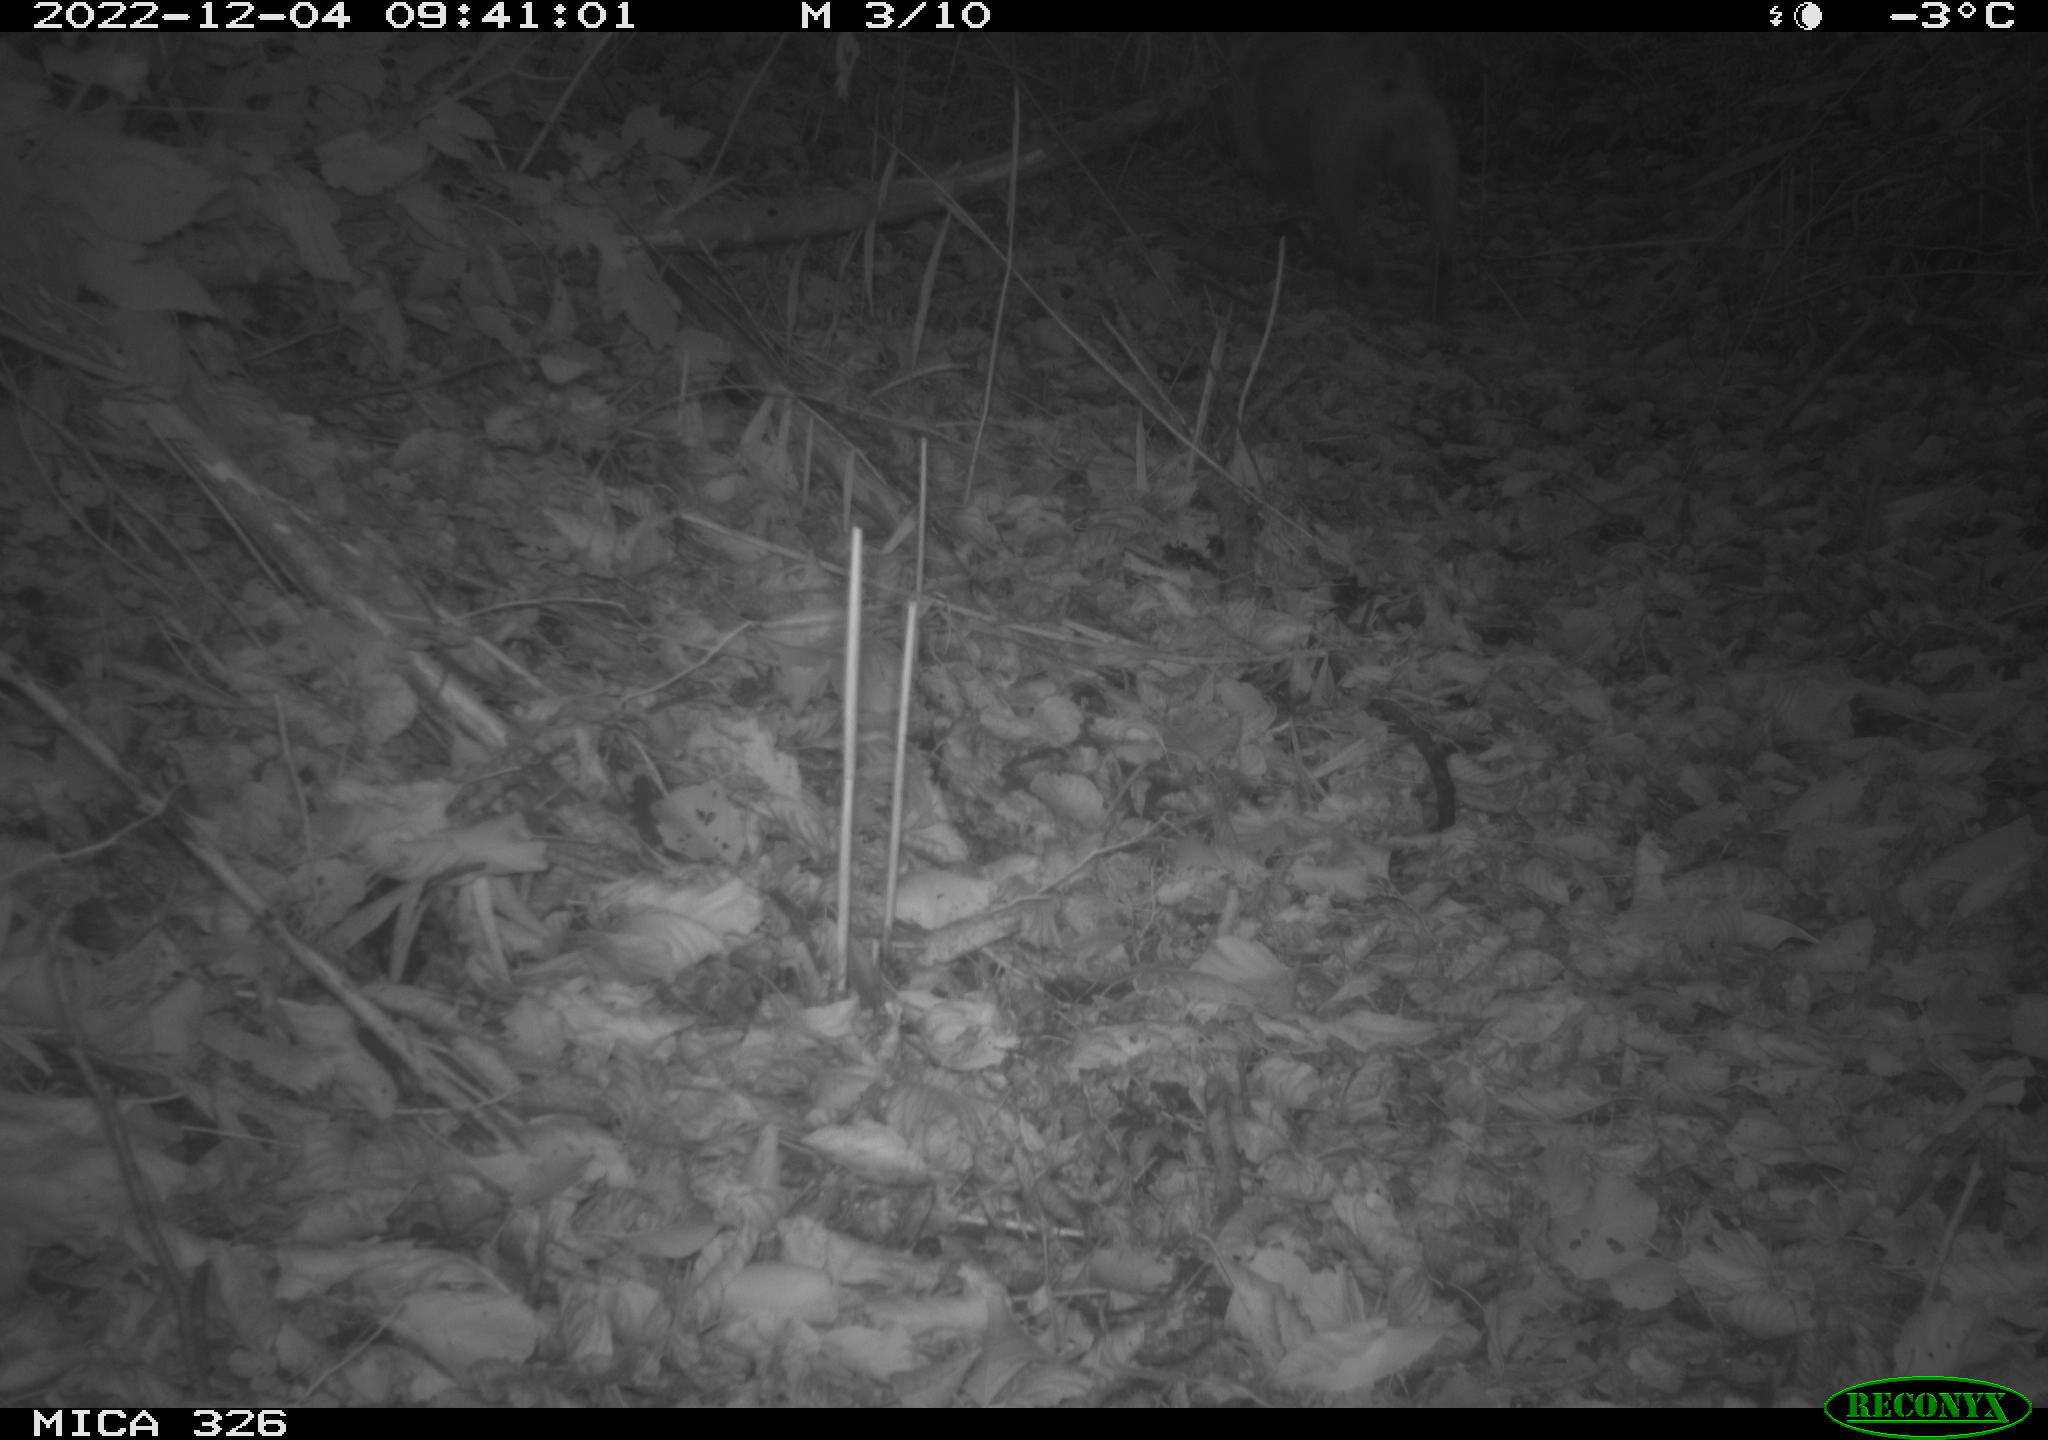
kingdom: Animalia
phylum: Chordata
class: Mammalia
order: Carnivora
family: Canidae
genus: Canis
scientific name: Canis lupus
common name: Gray wolf
